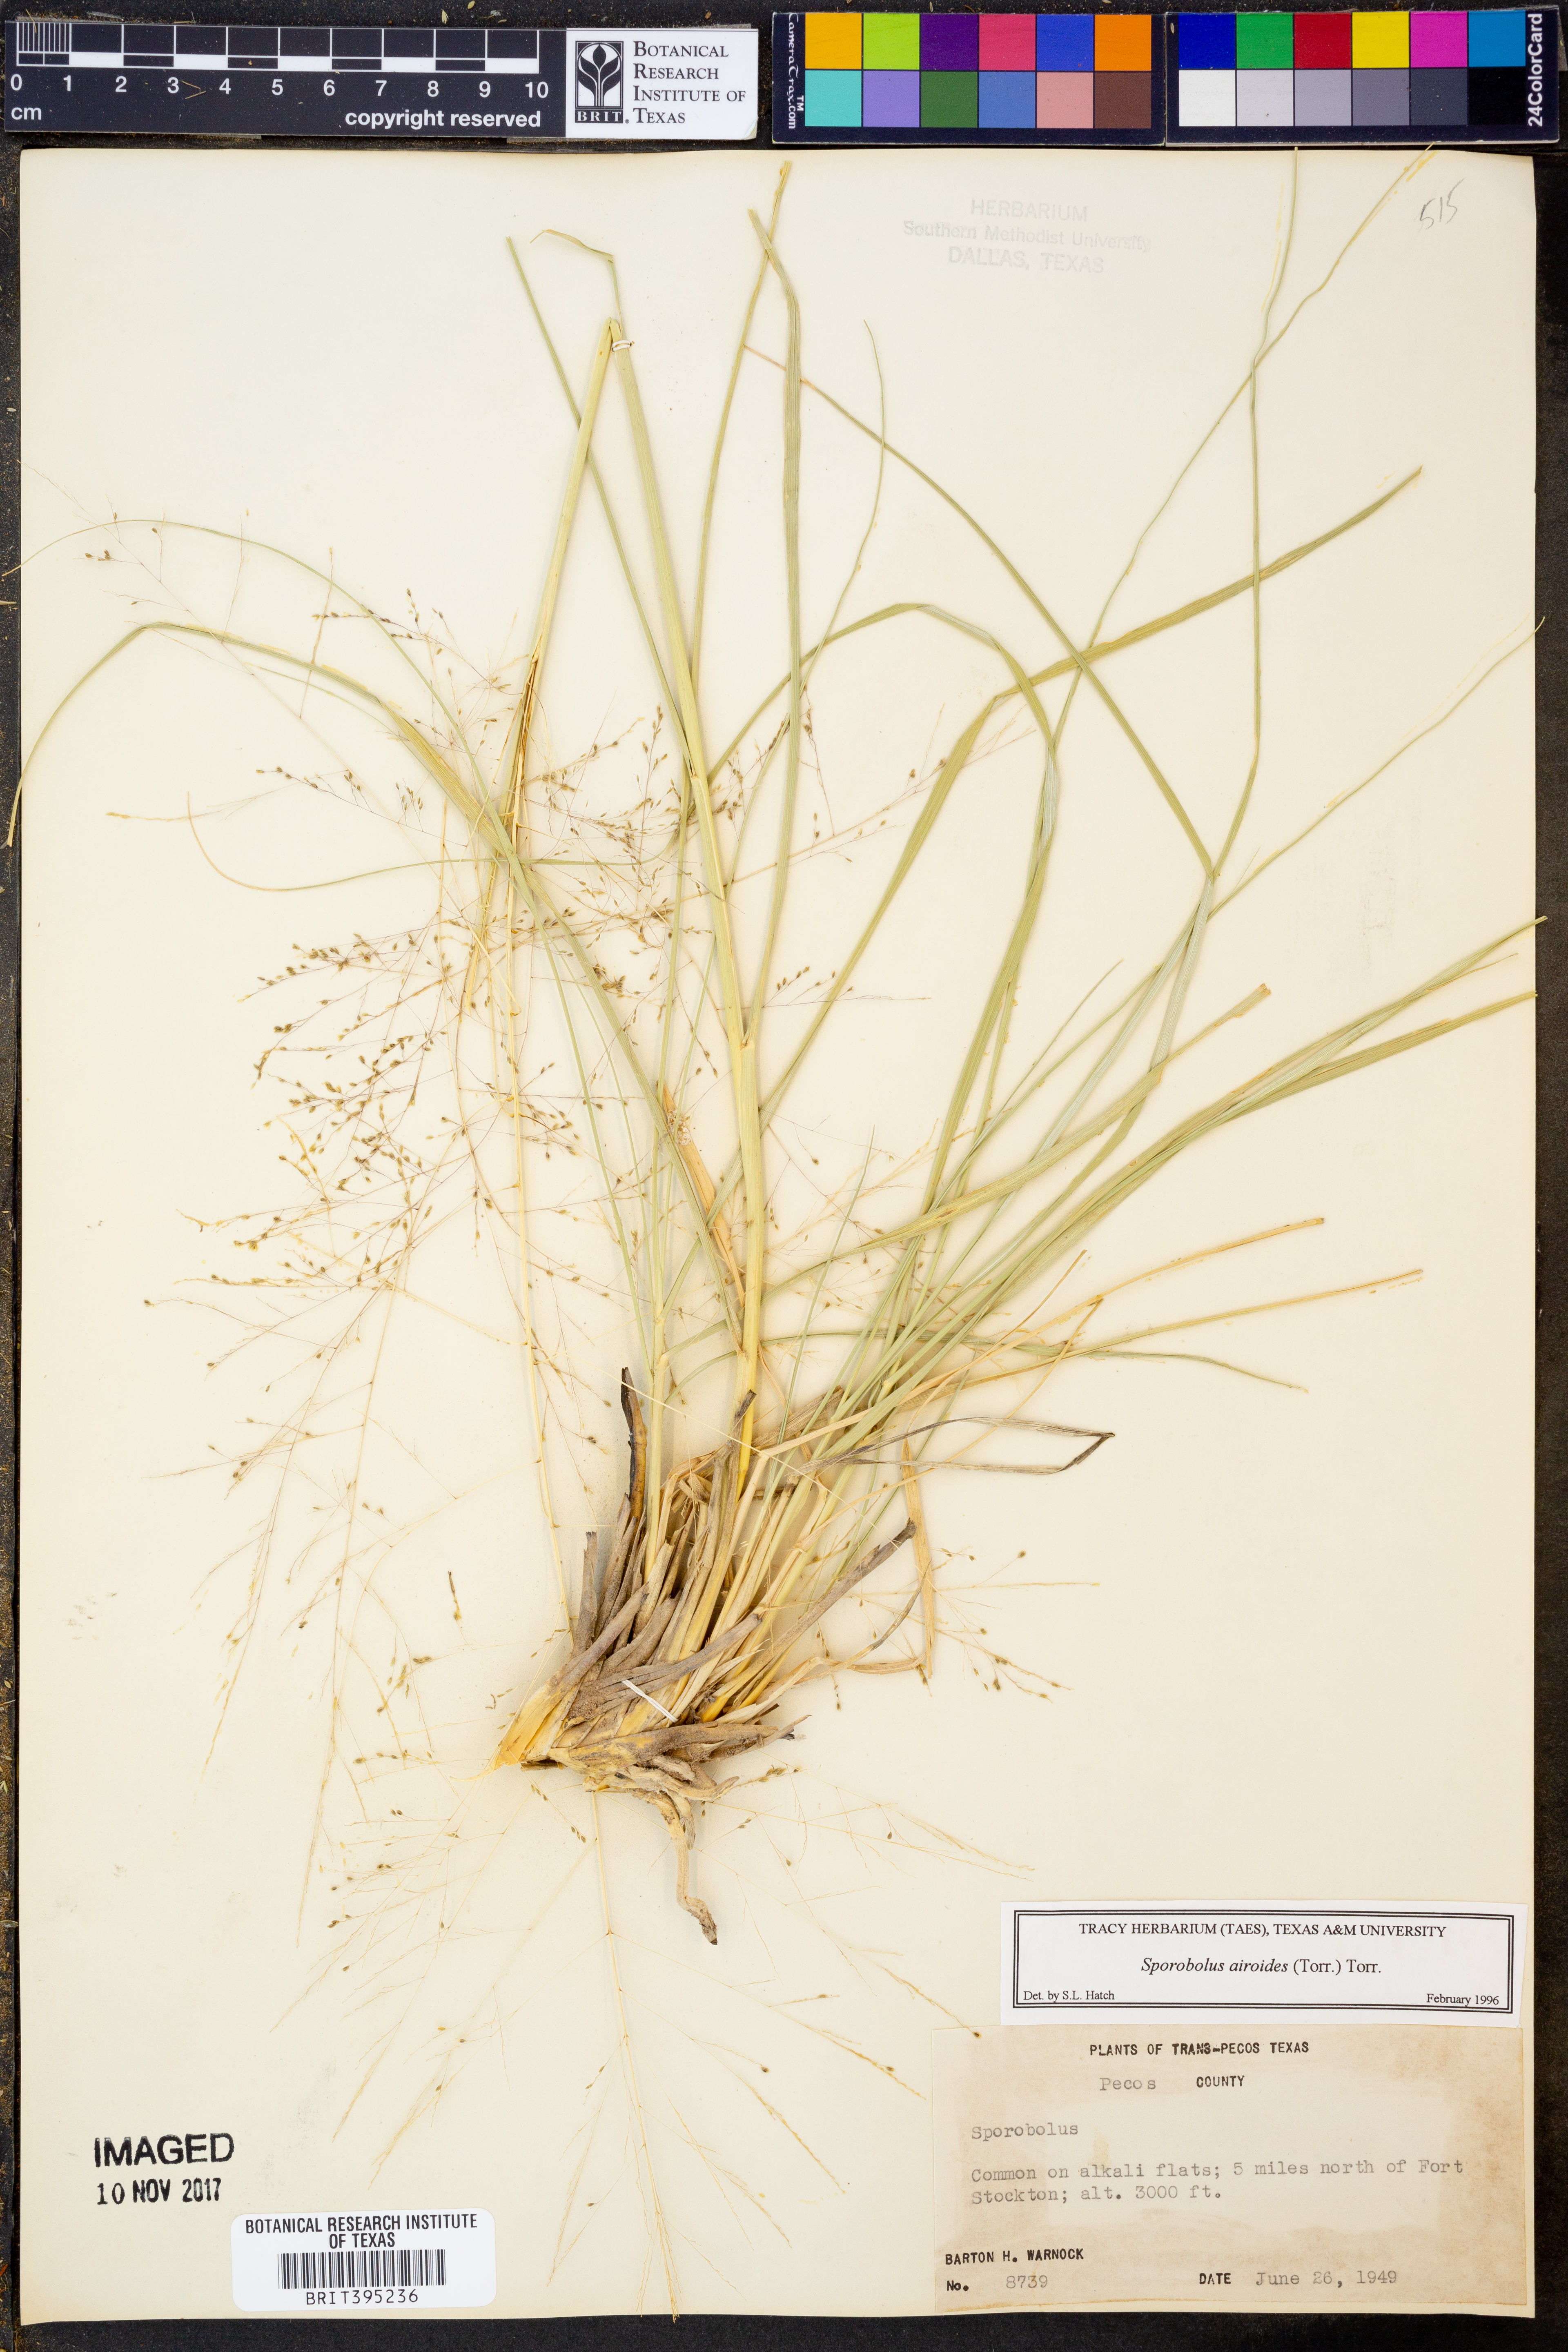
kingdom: Plantae
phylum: Tracheophyta
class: Liliopsida
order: Poales
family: Poaceae
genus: Sporobolus
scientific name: Sporobolus airoides
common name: Alkali sacaton
